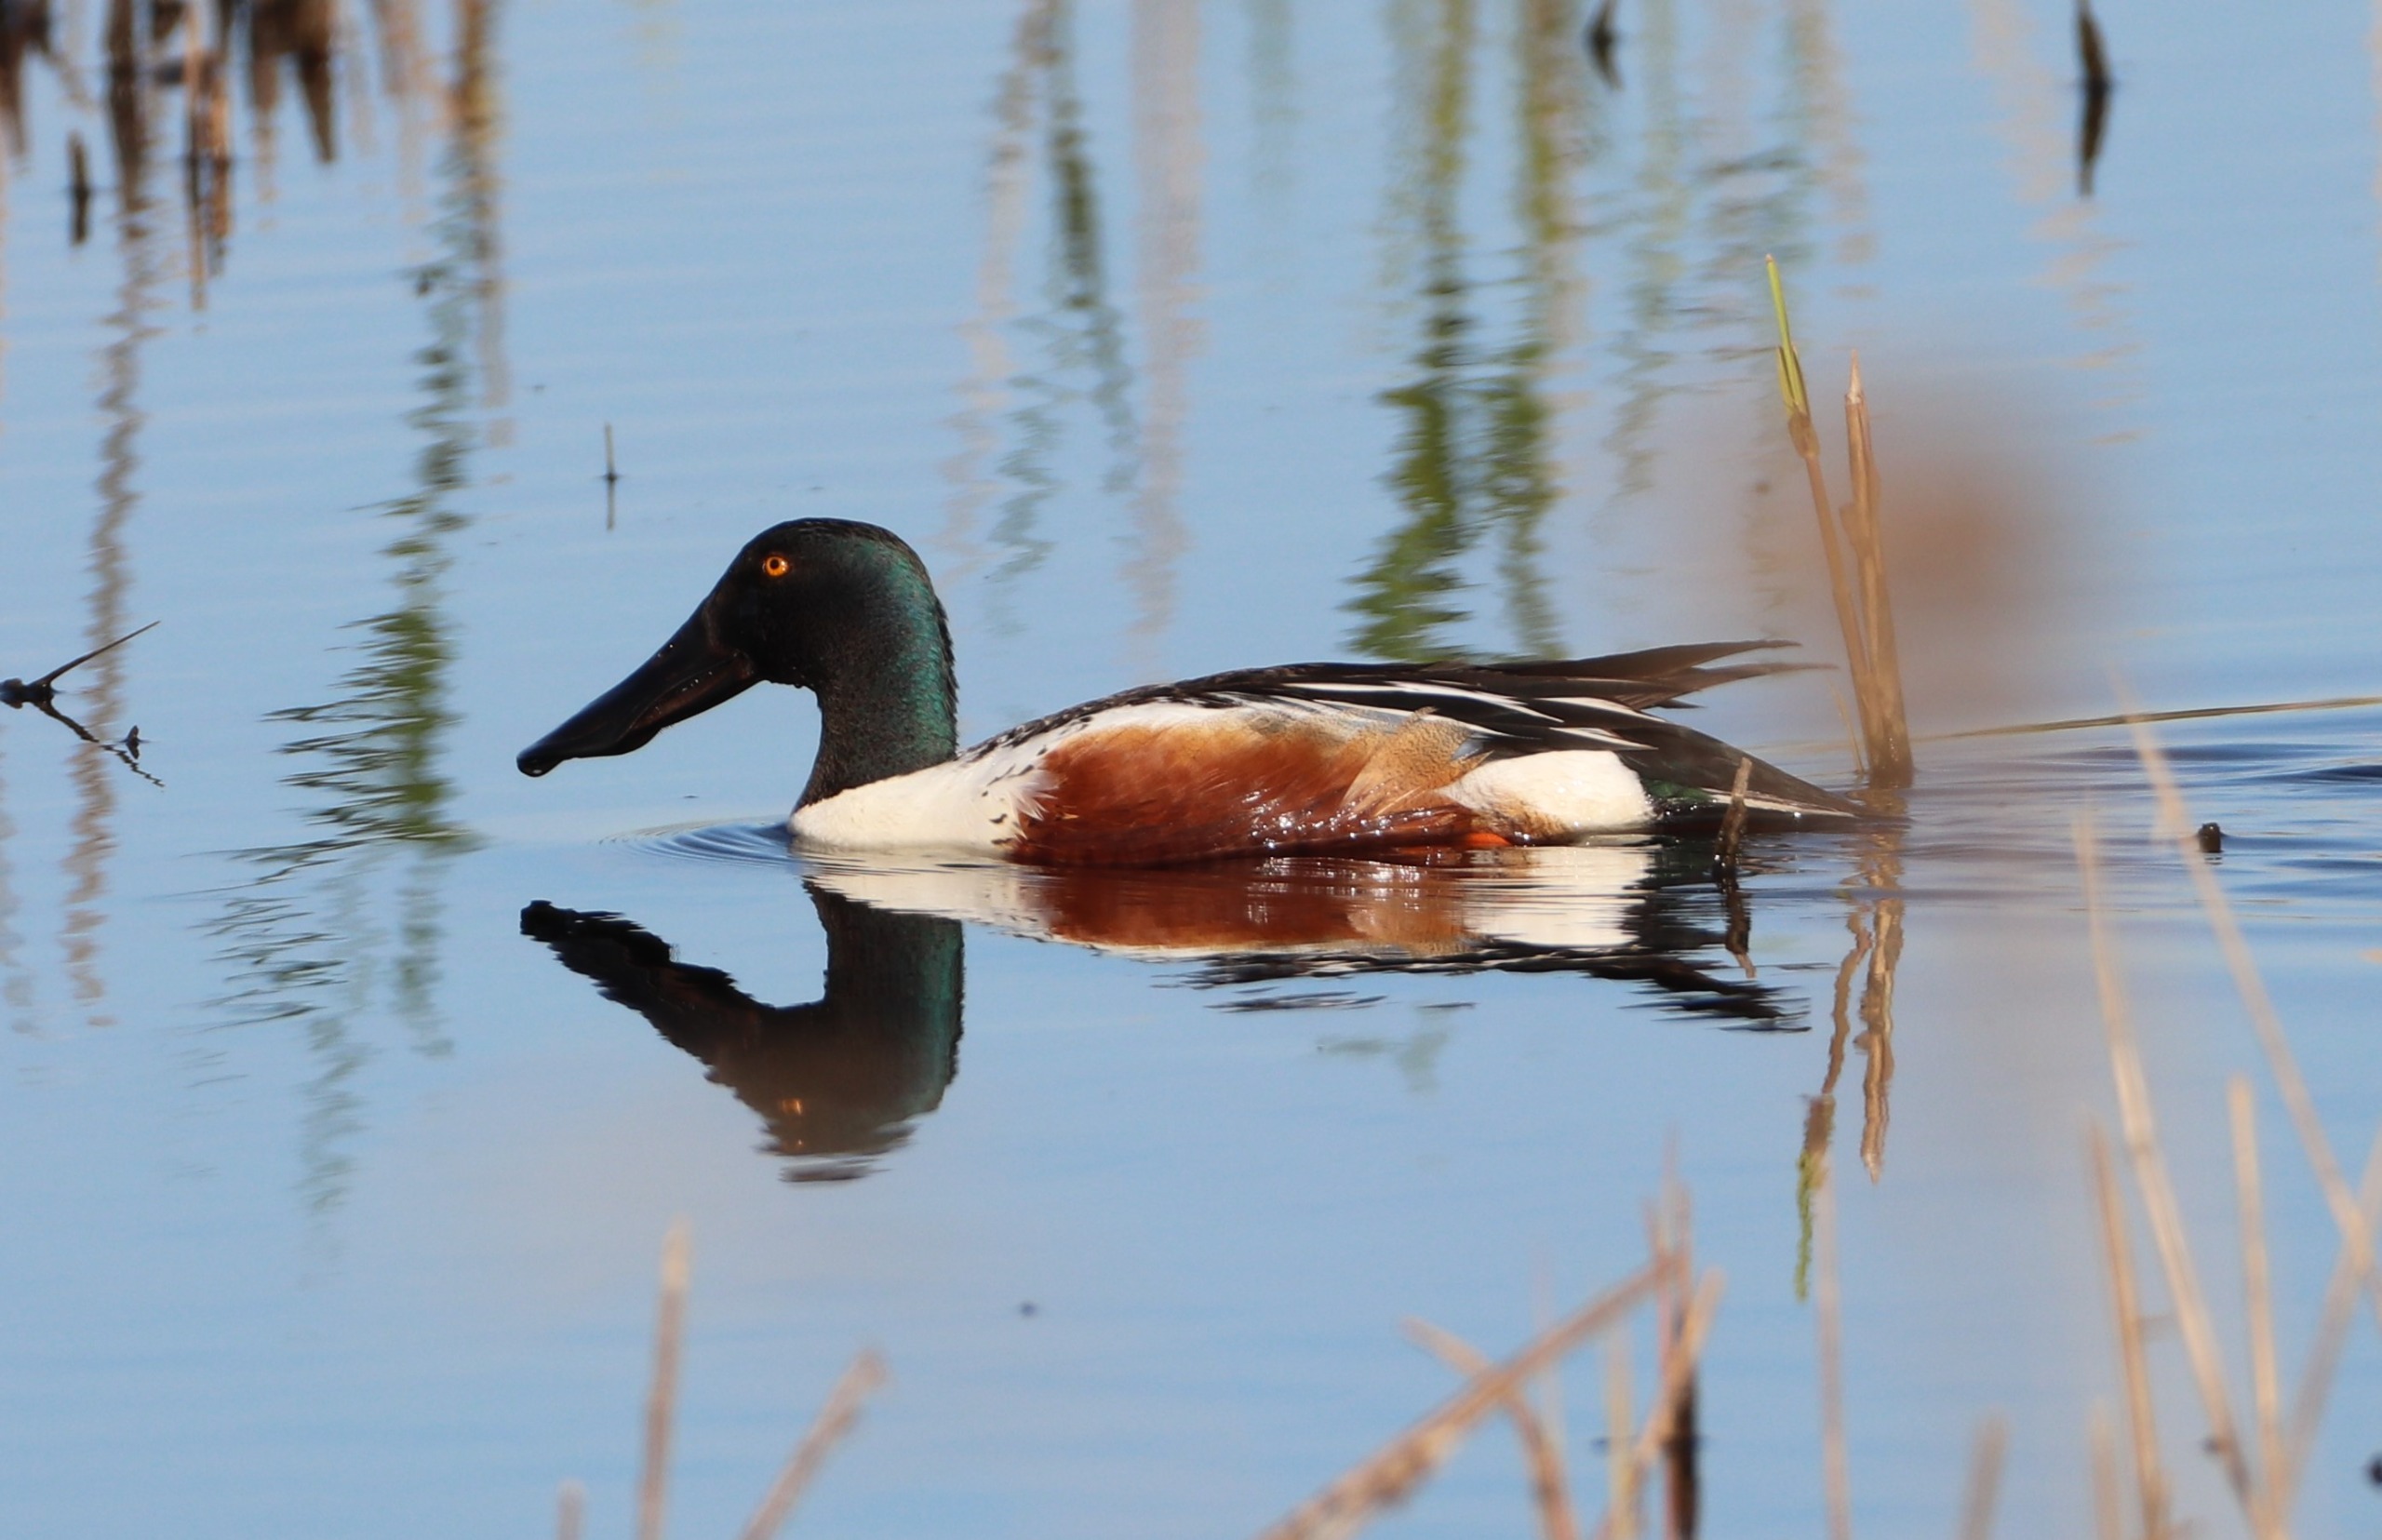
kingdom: Animalia
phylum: Chordata
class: Aves
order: Anseriformes
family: Anatidae
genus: Spatula
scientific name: Spatula clypeata
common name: Skeand
